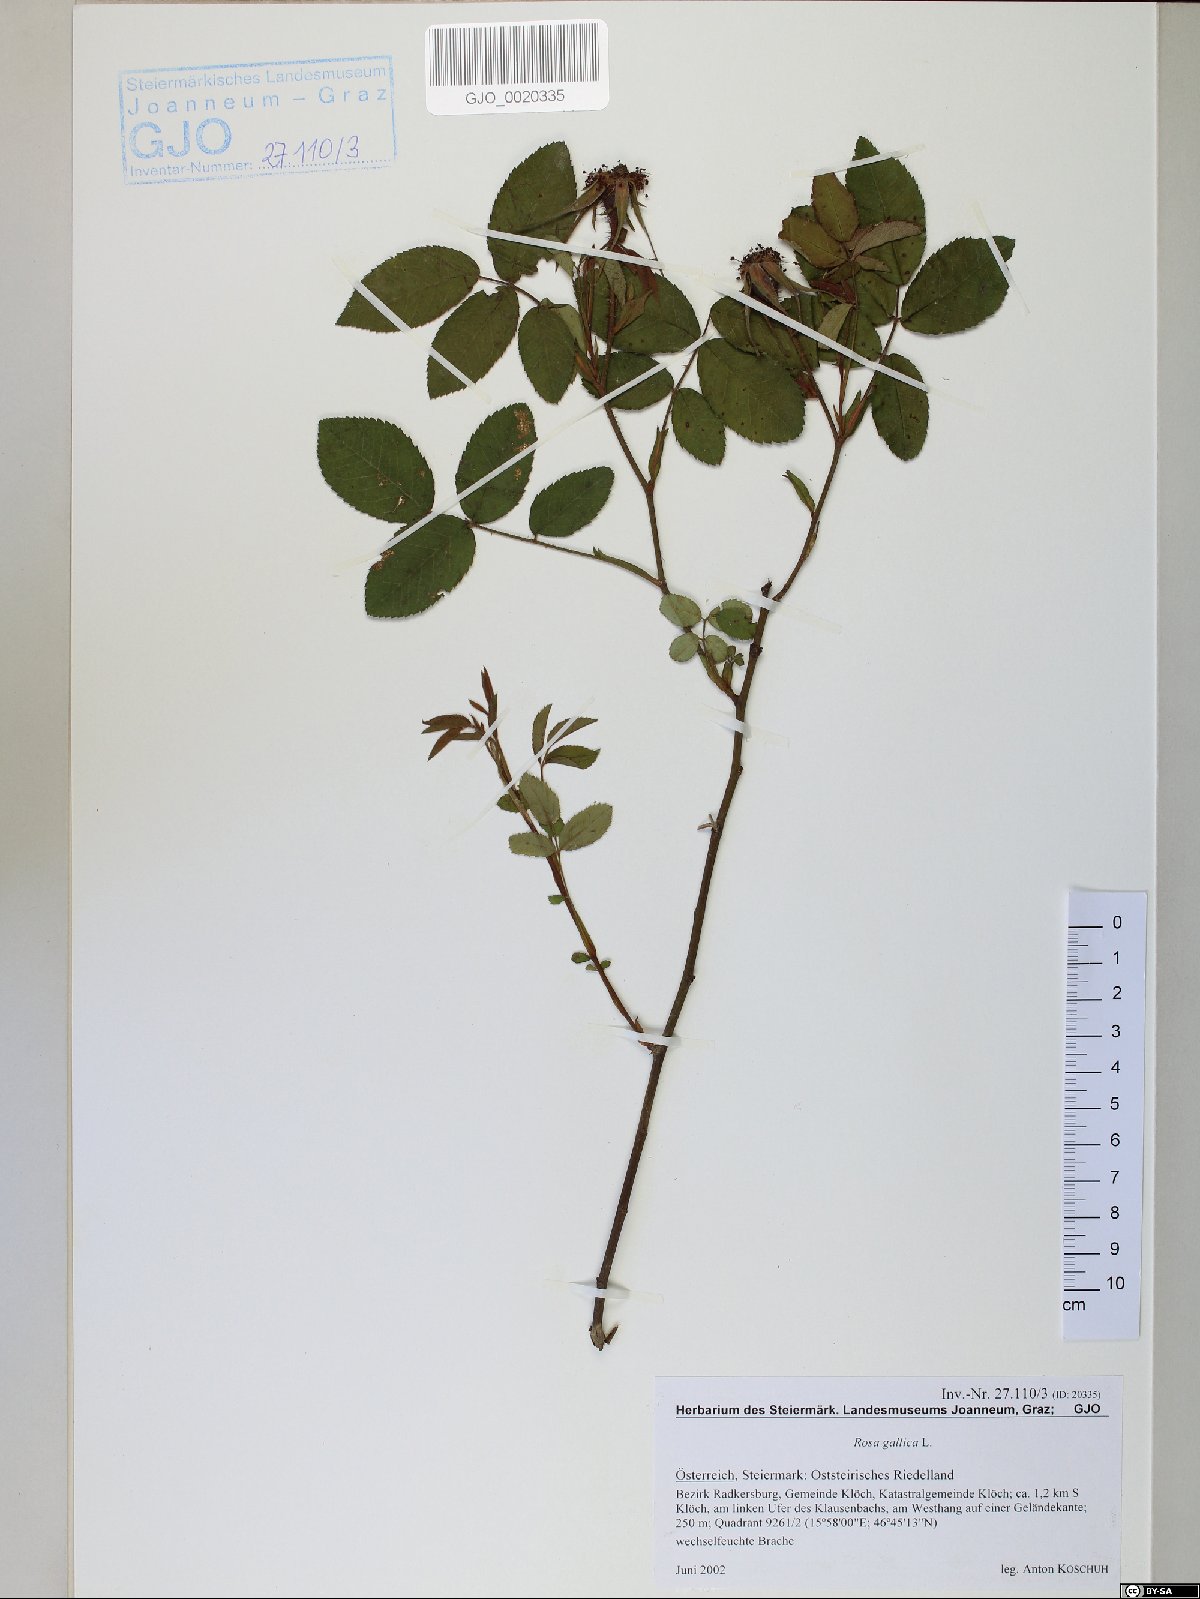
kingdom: Plantae
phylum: Tracheophyta
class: Magnoliopsida
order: Rosales
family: Rosaceae
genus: Rosa
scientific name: Rosa gallica
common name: French rose
